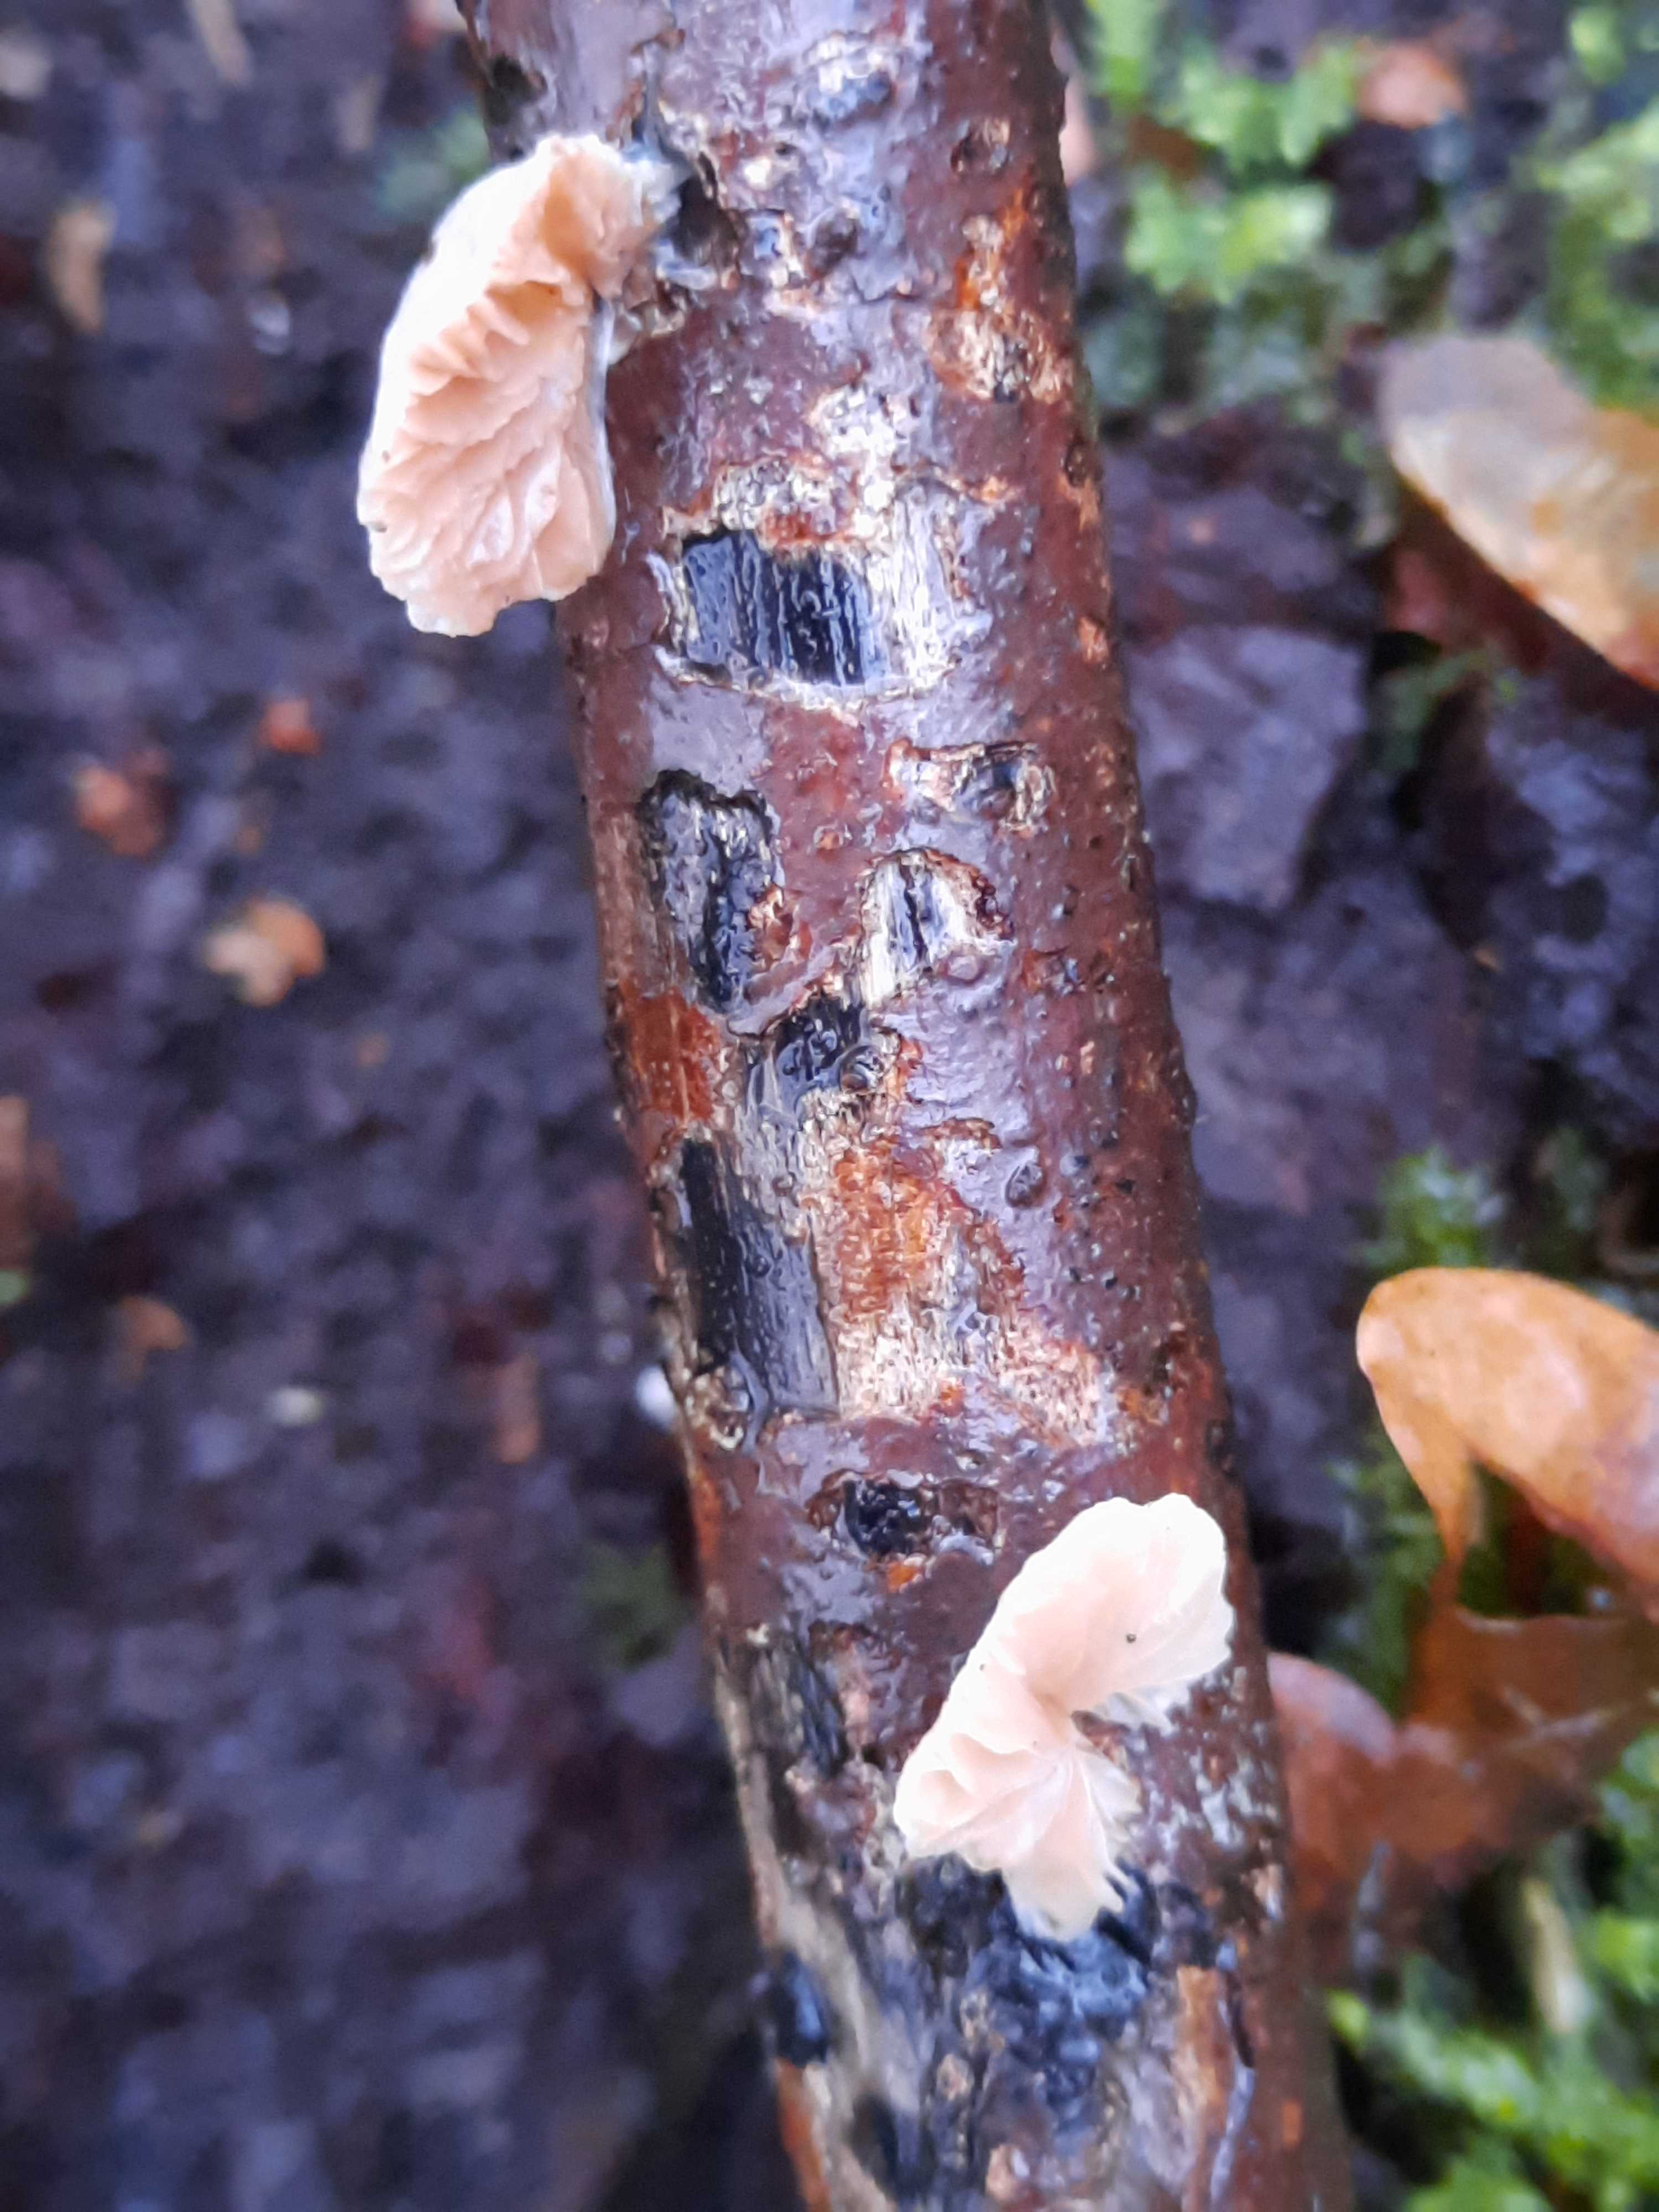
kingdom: Fungi
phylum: Basidiomycota
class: Agaricomycetes
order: Agaricales
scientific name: Agaricales
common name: champignonordenen
